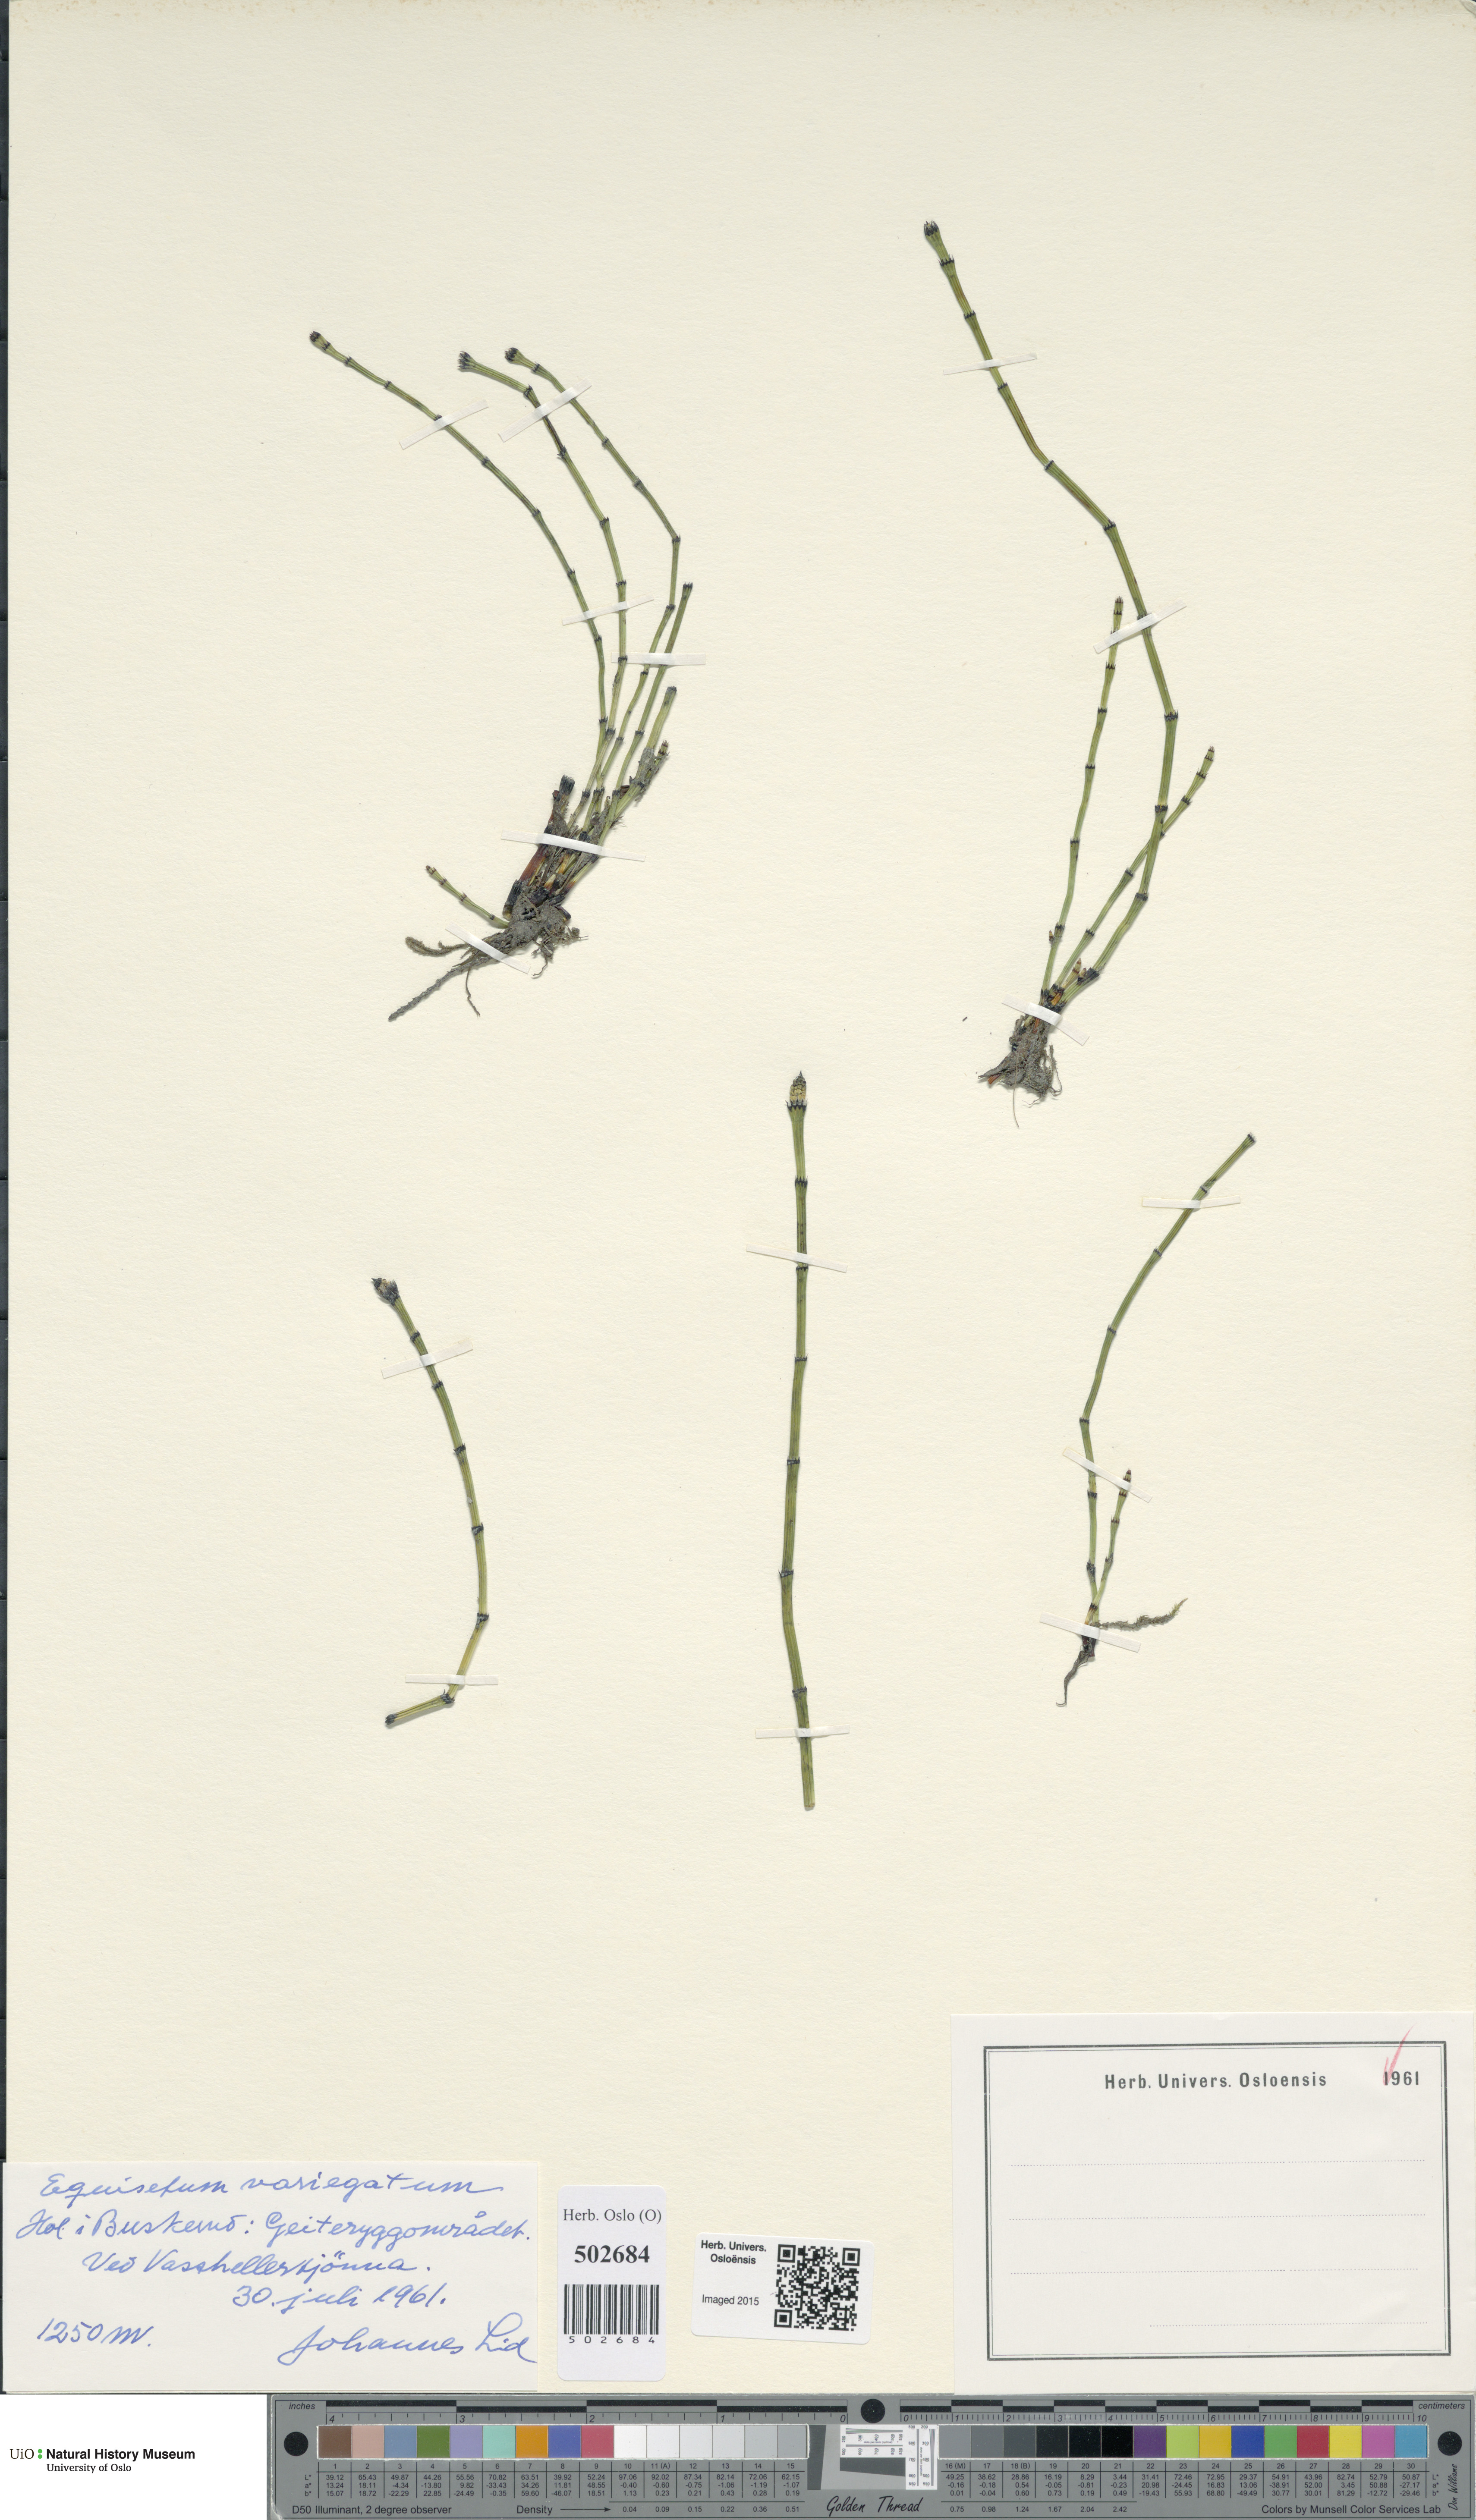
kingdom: Plantae
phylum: Tracheophyta
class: Polypodiopsida
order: Equisetales
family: Equisetaceae
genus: Equisetum
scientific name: Equisetum variegatum
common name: Variegated horsetail
